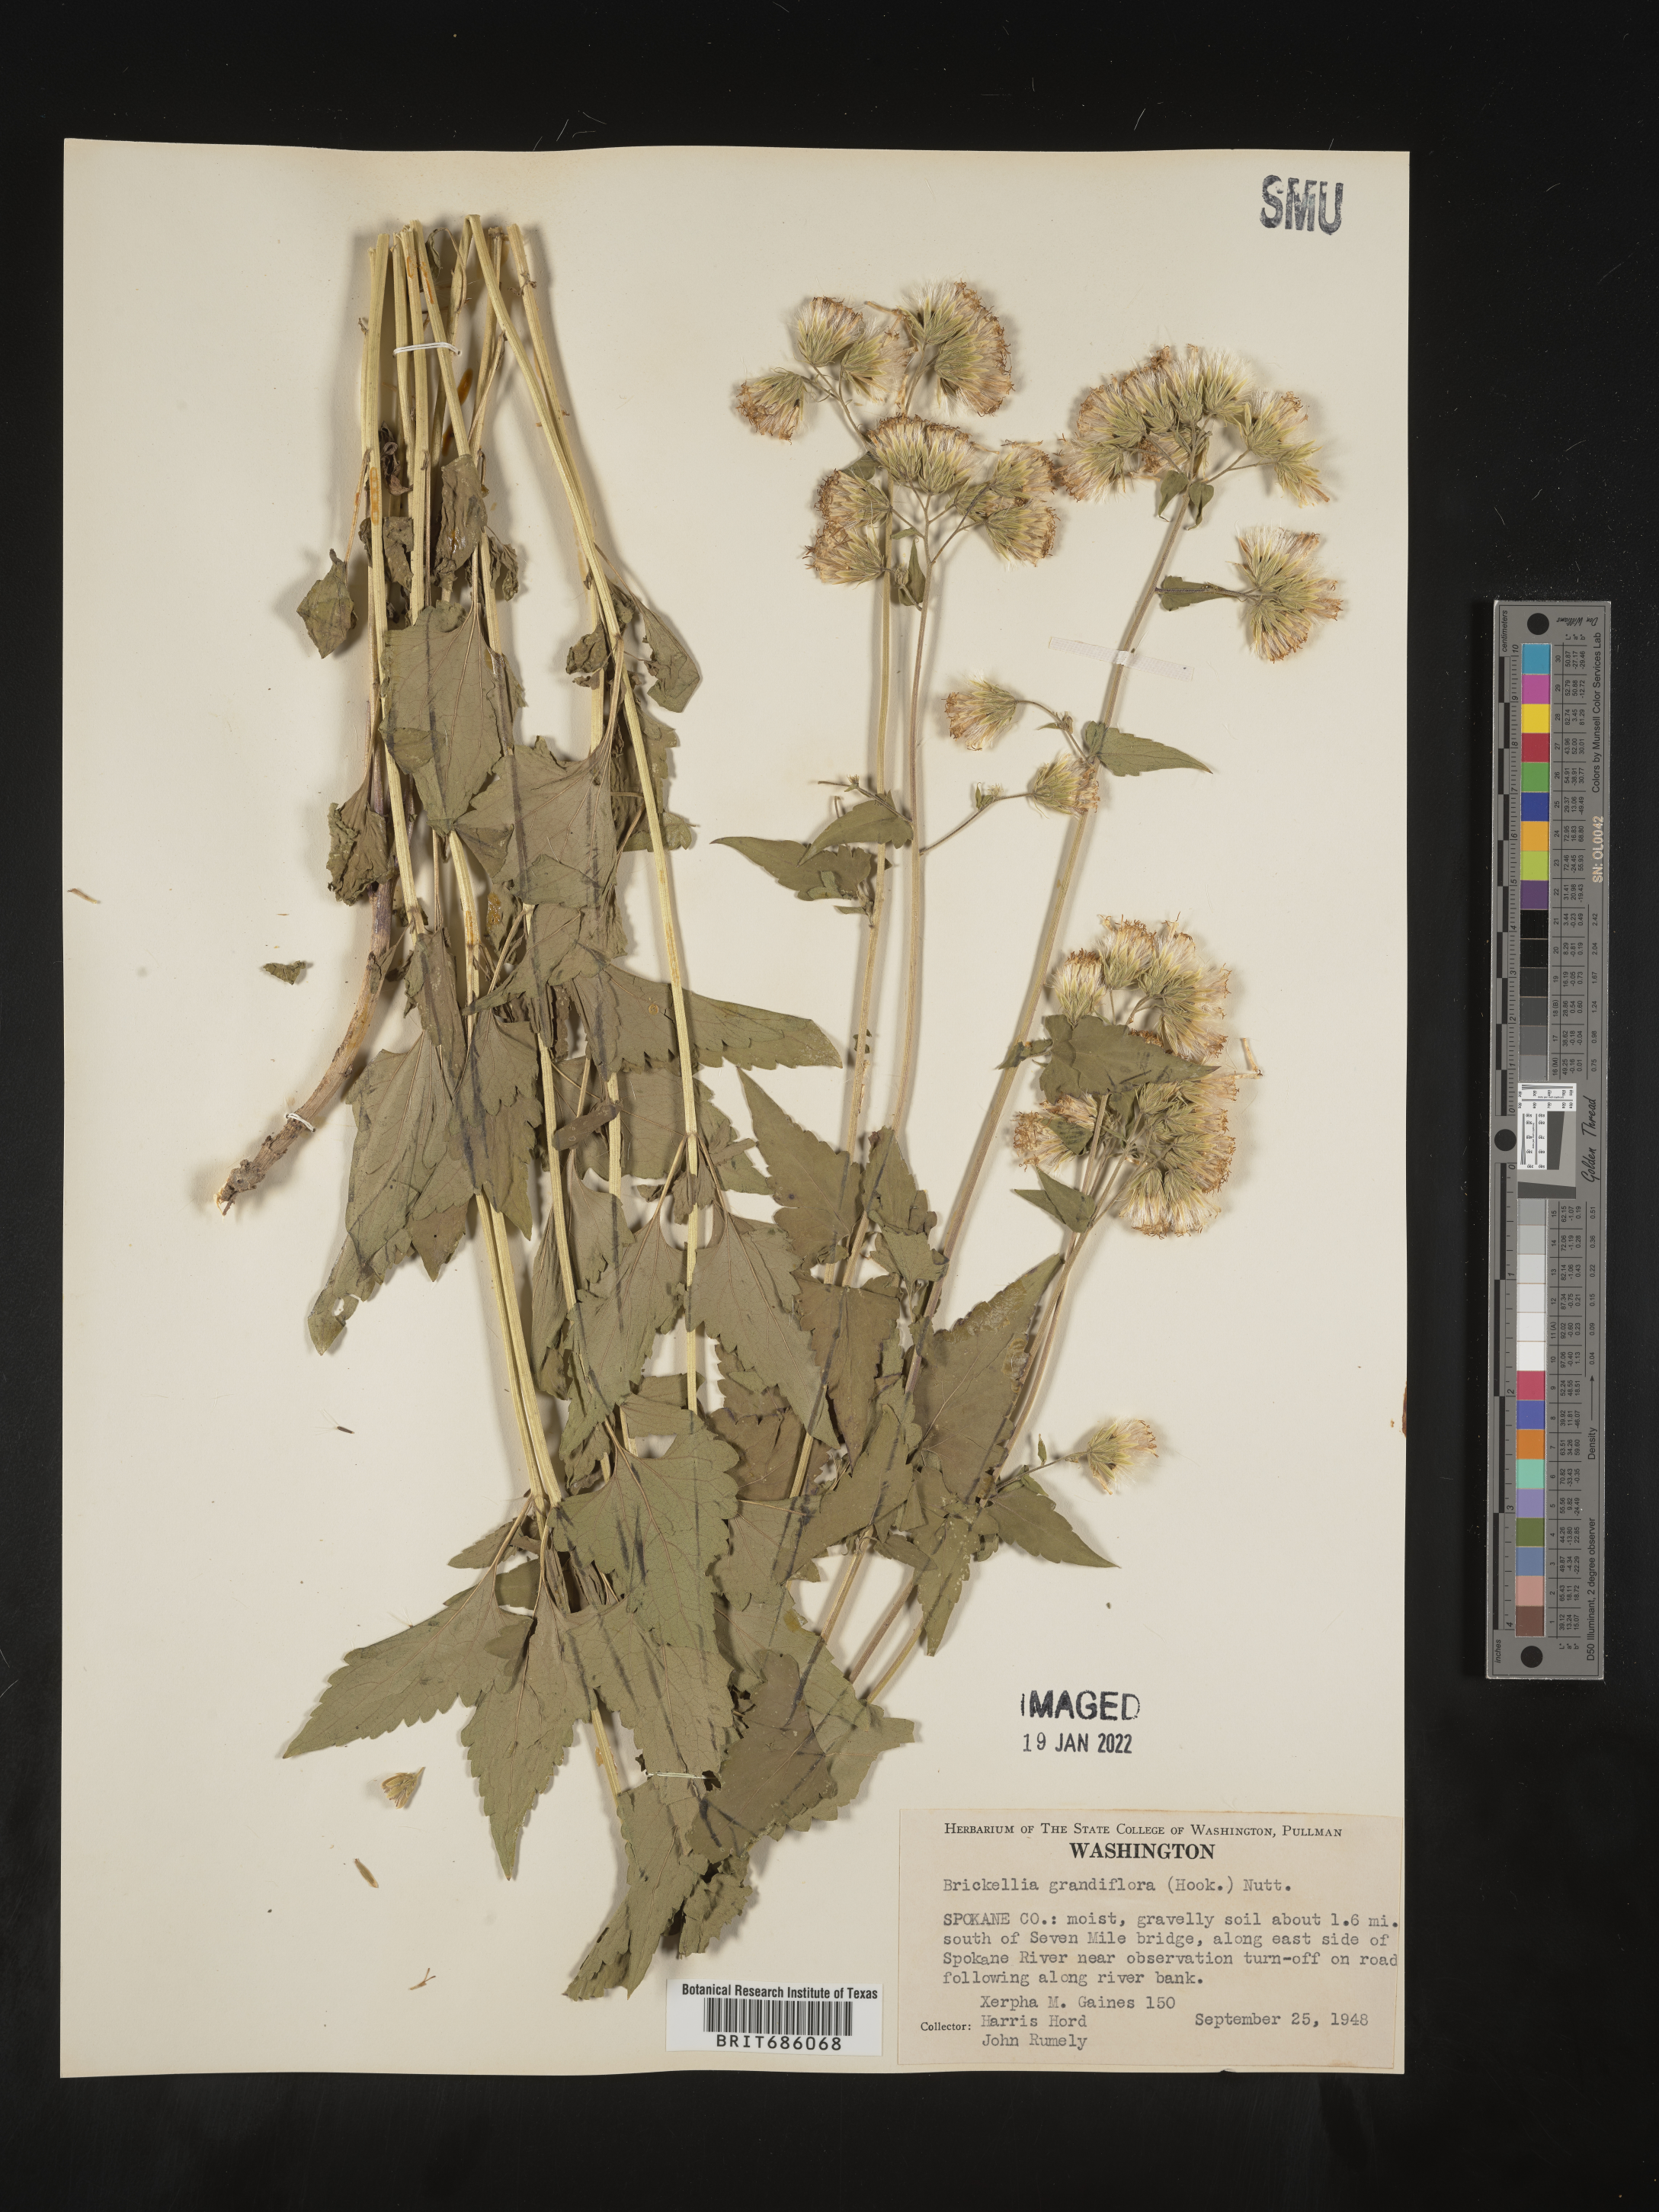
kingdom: Plantae
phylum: Tracheophyta
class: Magnoliopsida
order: Asterales
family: Asteraceae
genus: Brickellia
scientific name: Brickellia grandiflora
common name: Large-flowered brickellia
